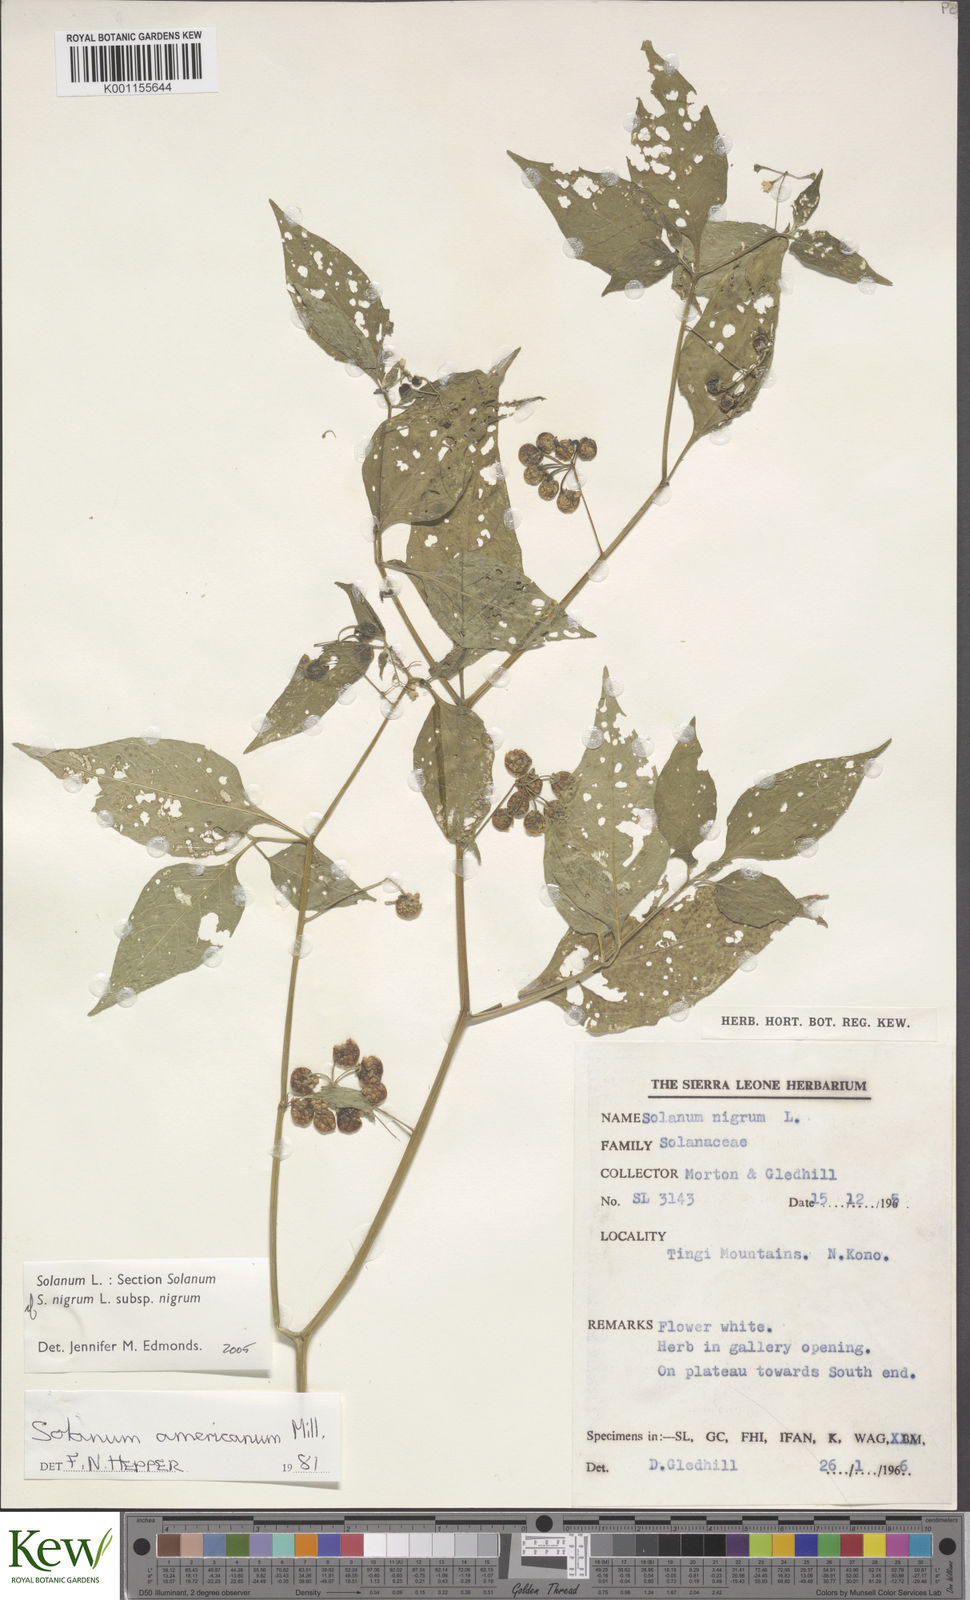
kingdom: Plantae
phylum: Tracheophyta
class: Magnoliopsida
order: Solanales
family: Solanaceae
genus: Solanum
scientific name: Solanum tarderemotum
